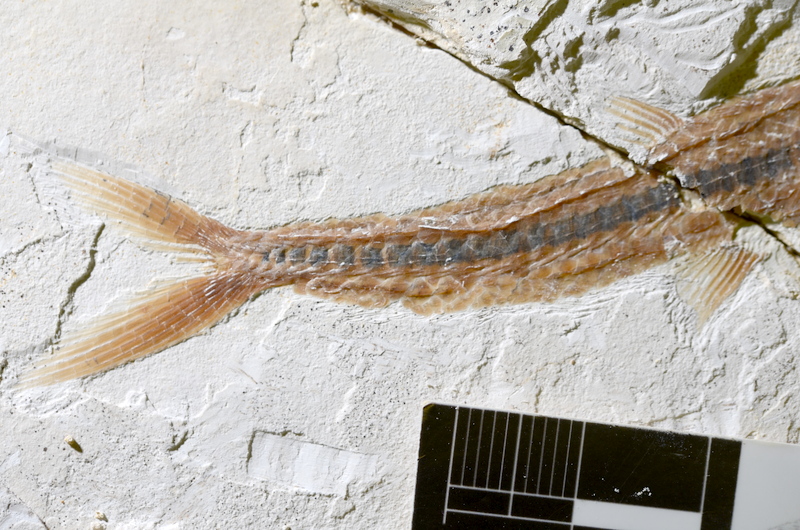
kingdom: Animalia
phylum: Chordata
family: Aspidorhynchidae
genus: Belonostomus
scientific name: Belonostomus kochii
